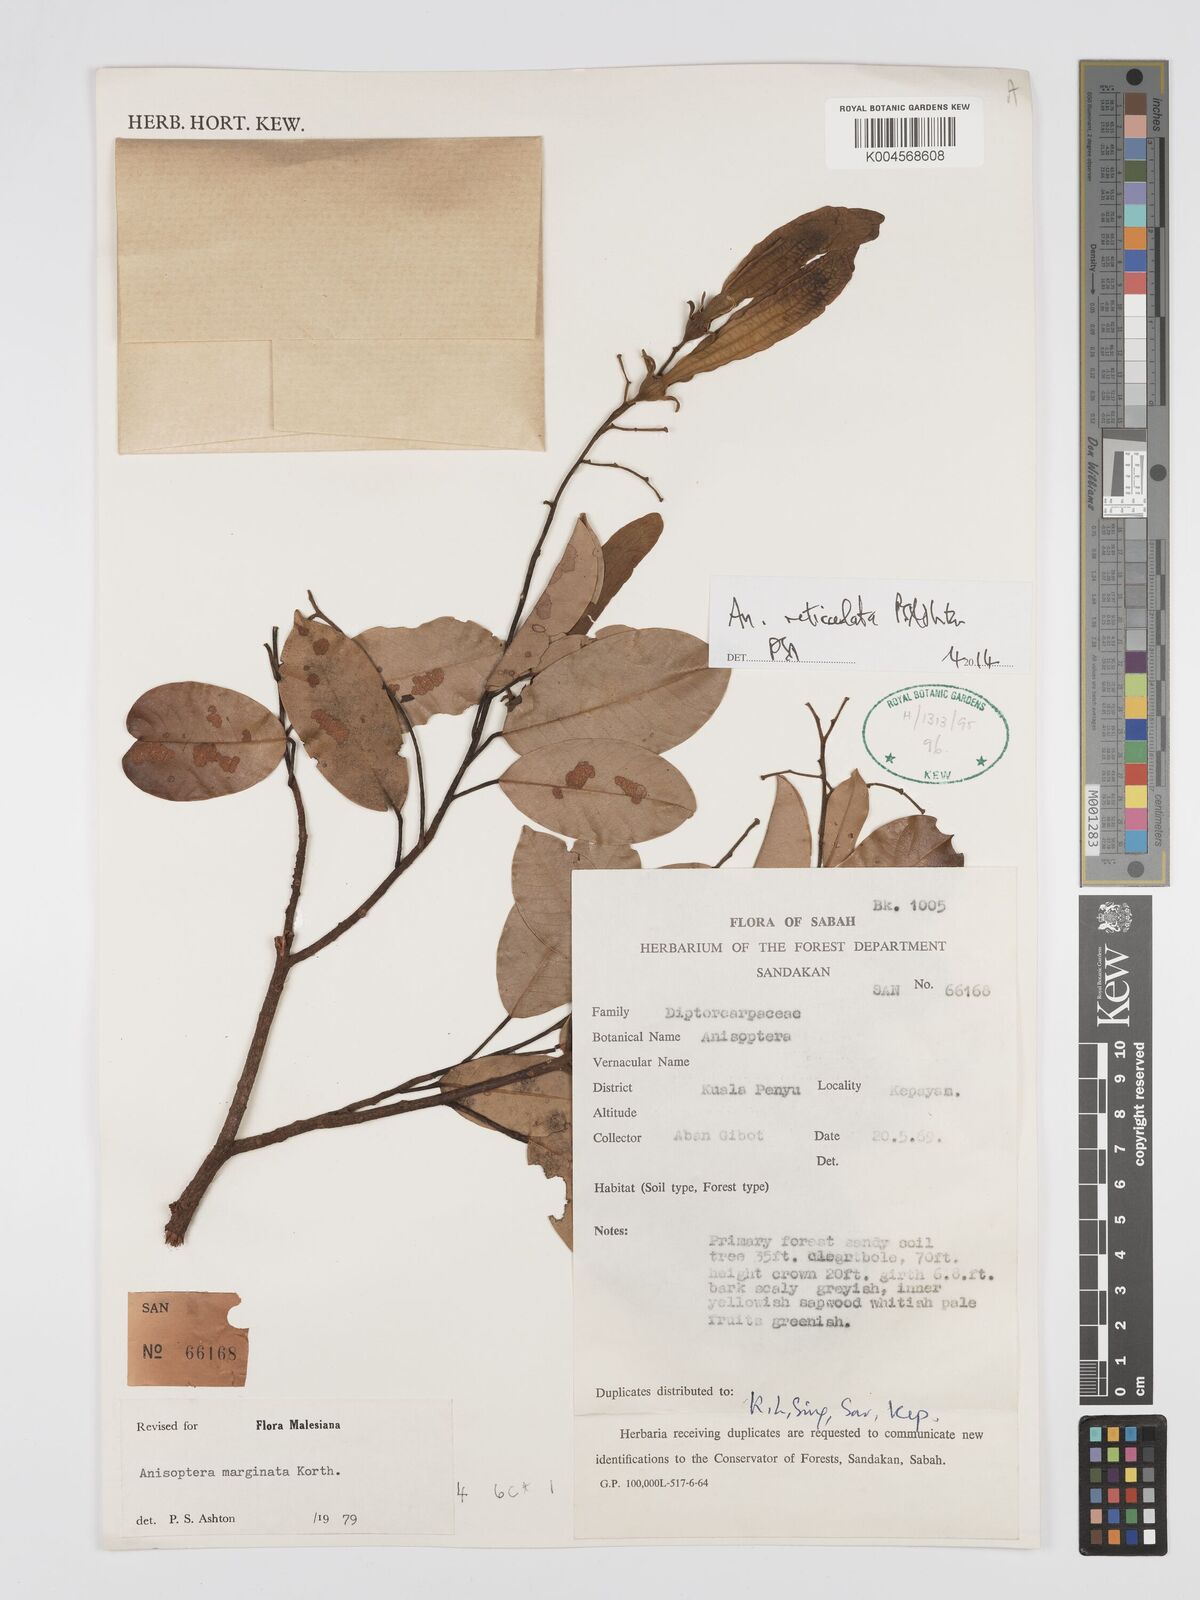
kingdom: Plantae
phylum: Tracheophyta
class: Magnoliopsida
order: Malvales
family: Dipterocarpaceae
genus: Anisoptera
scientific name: Anisoptera marginata
